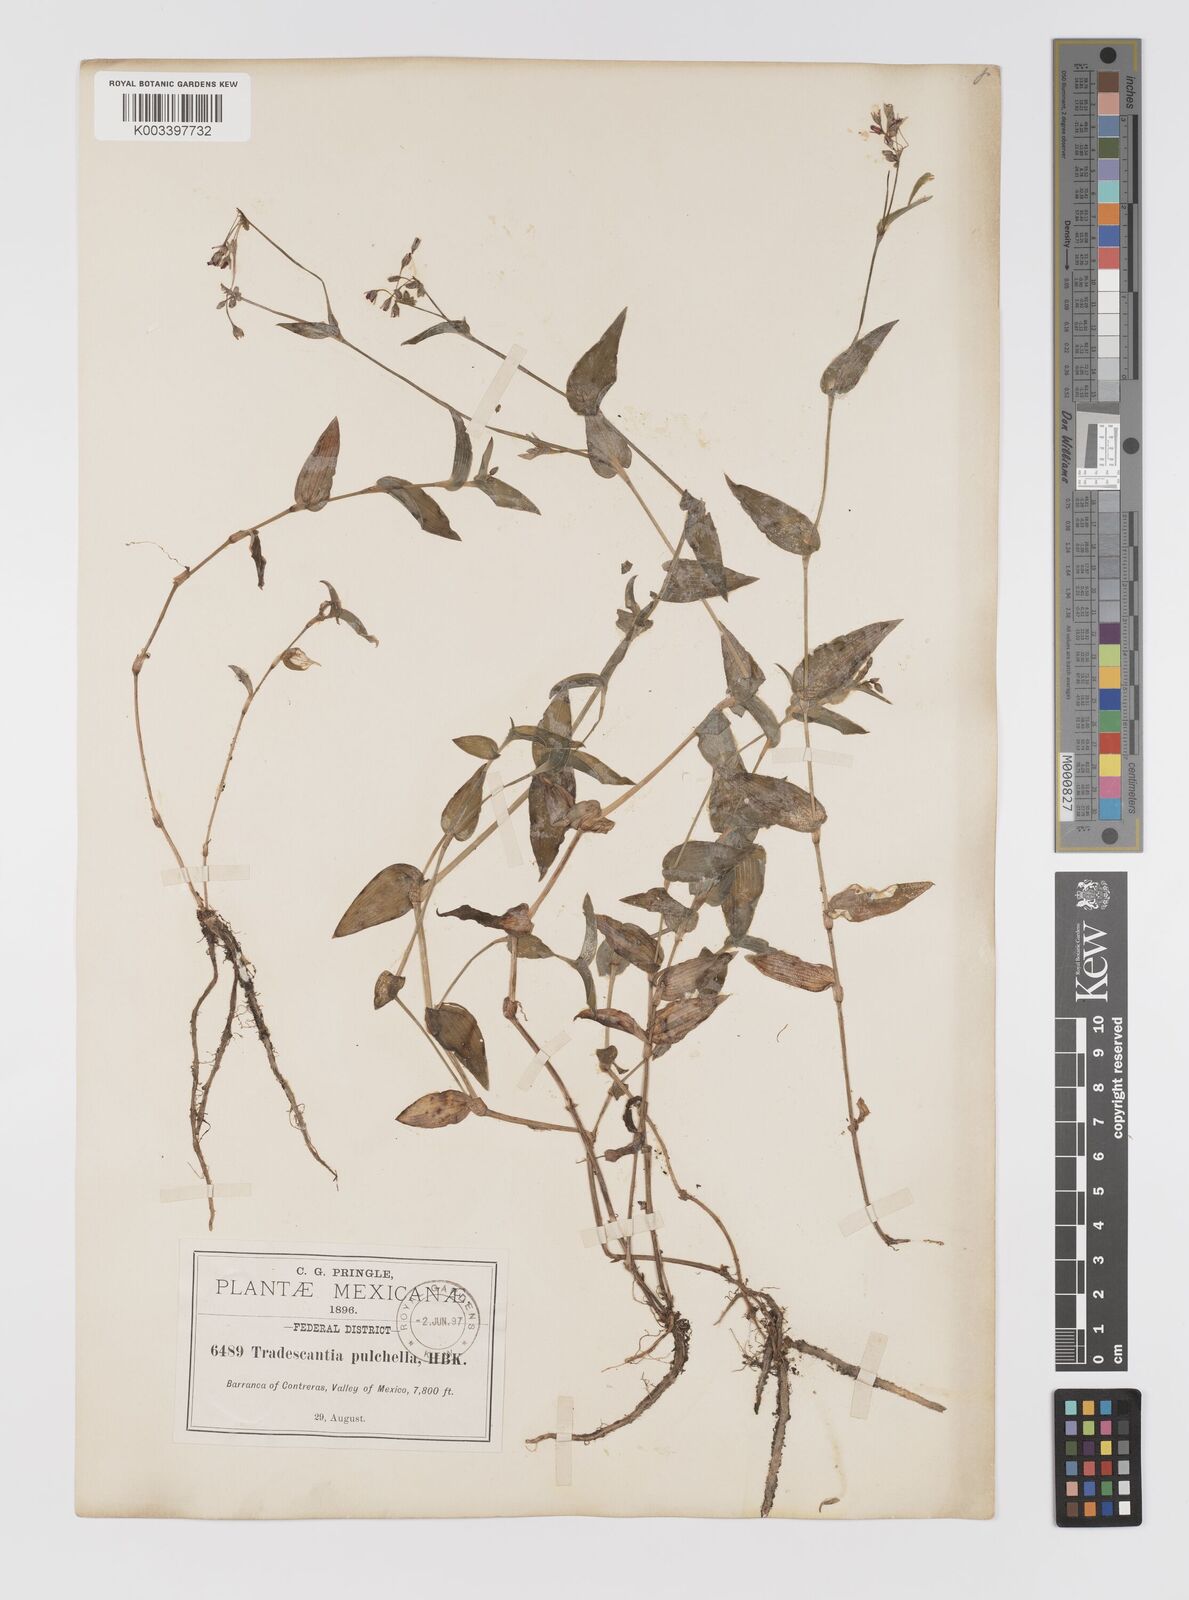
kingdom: Plantae
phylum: Tracheophyta
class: Liliopsida
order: Commelinales
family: Commelinaceae
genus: Gibasis
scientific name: Gibasis pulchella
